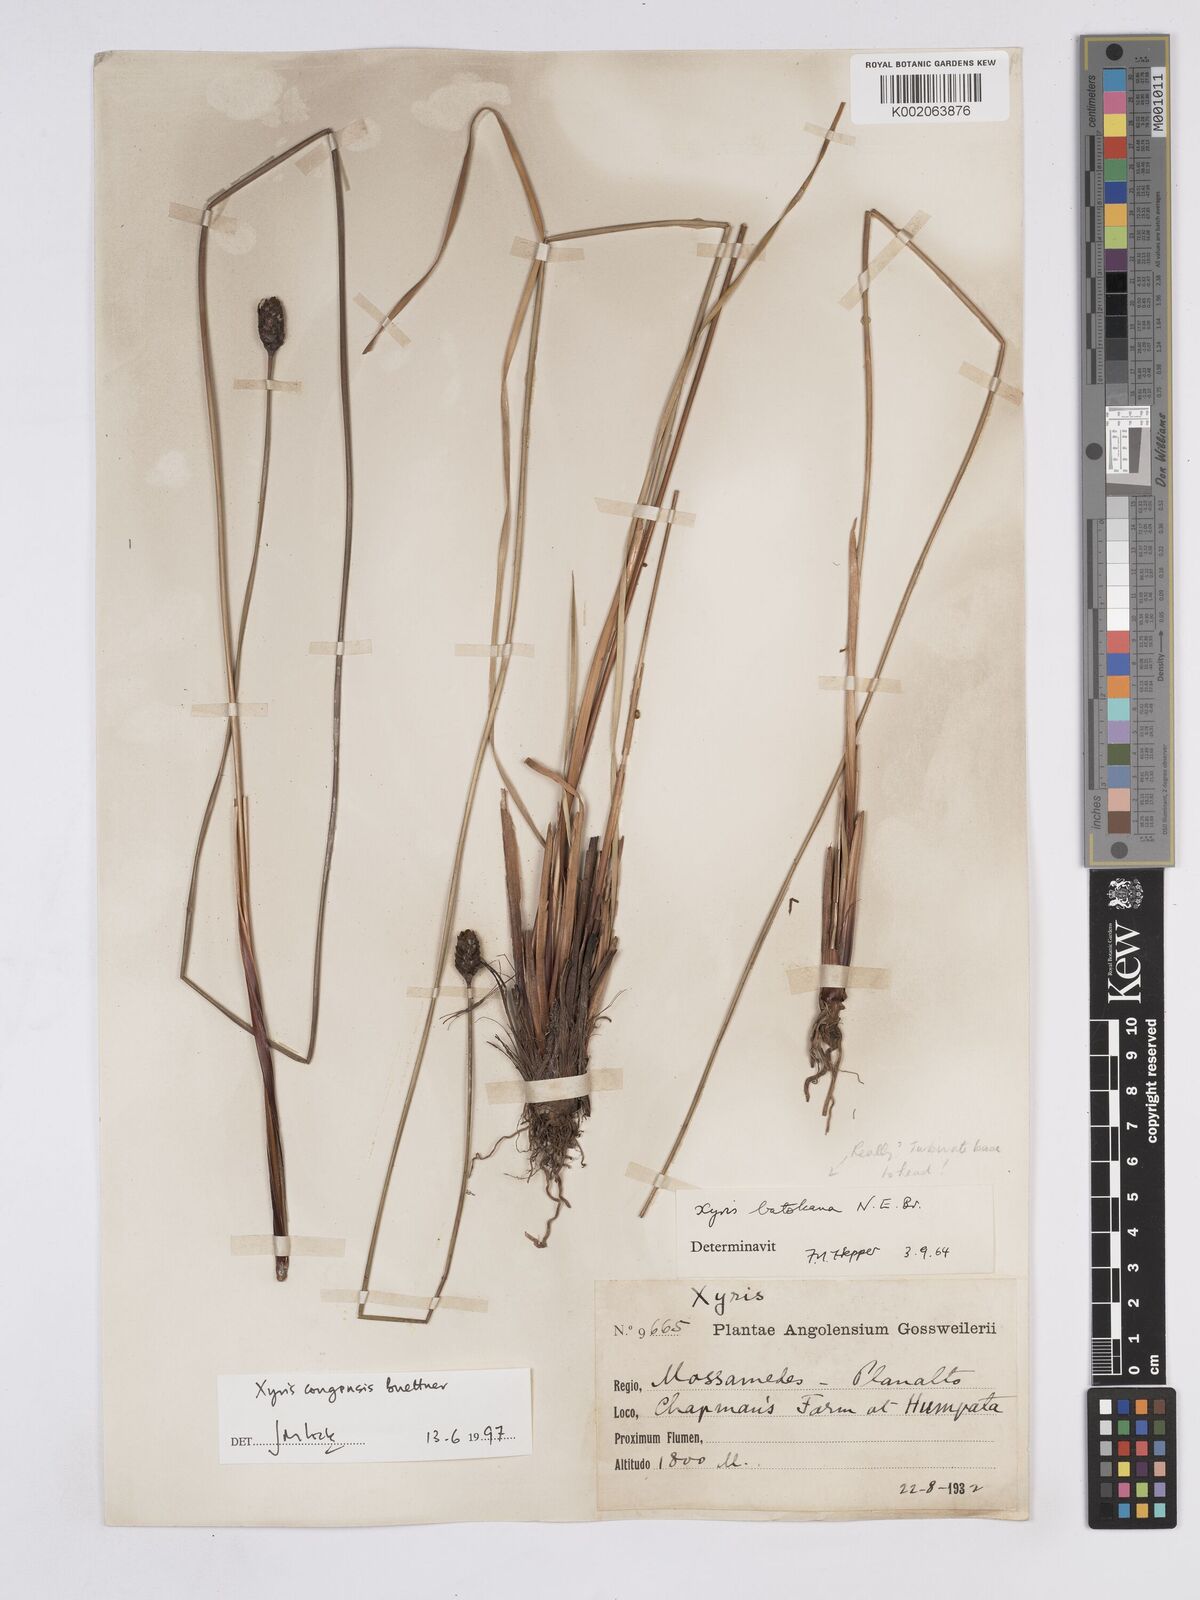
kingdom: Plantae
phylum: Tracheophyta
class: Liliopsida
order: Poales
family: Xyridaceae
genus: Xyris
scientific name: Xyris congensis
